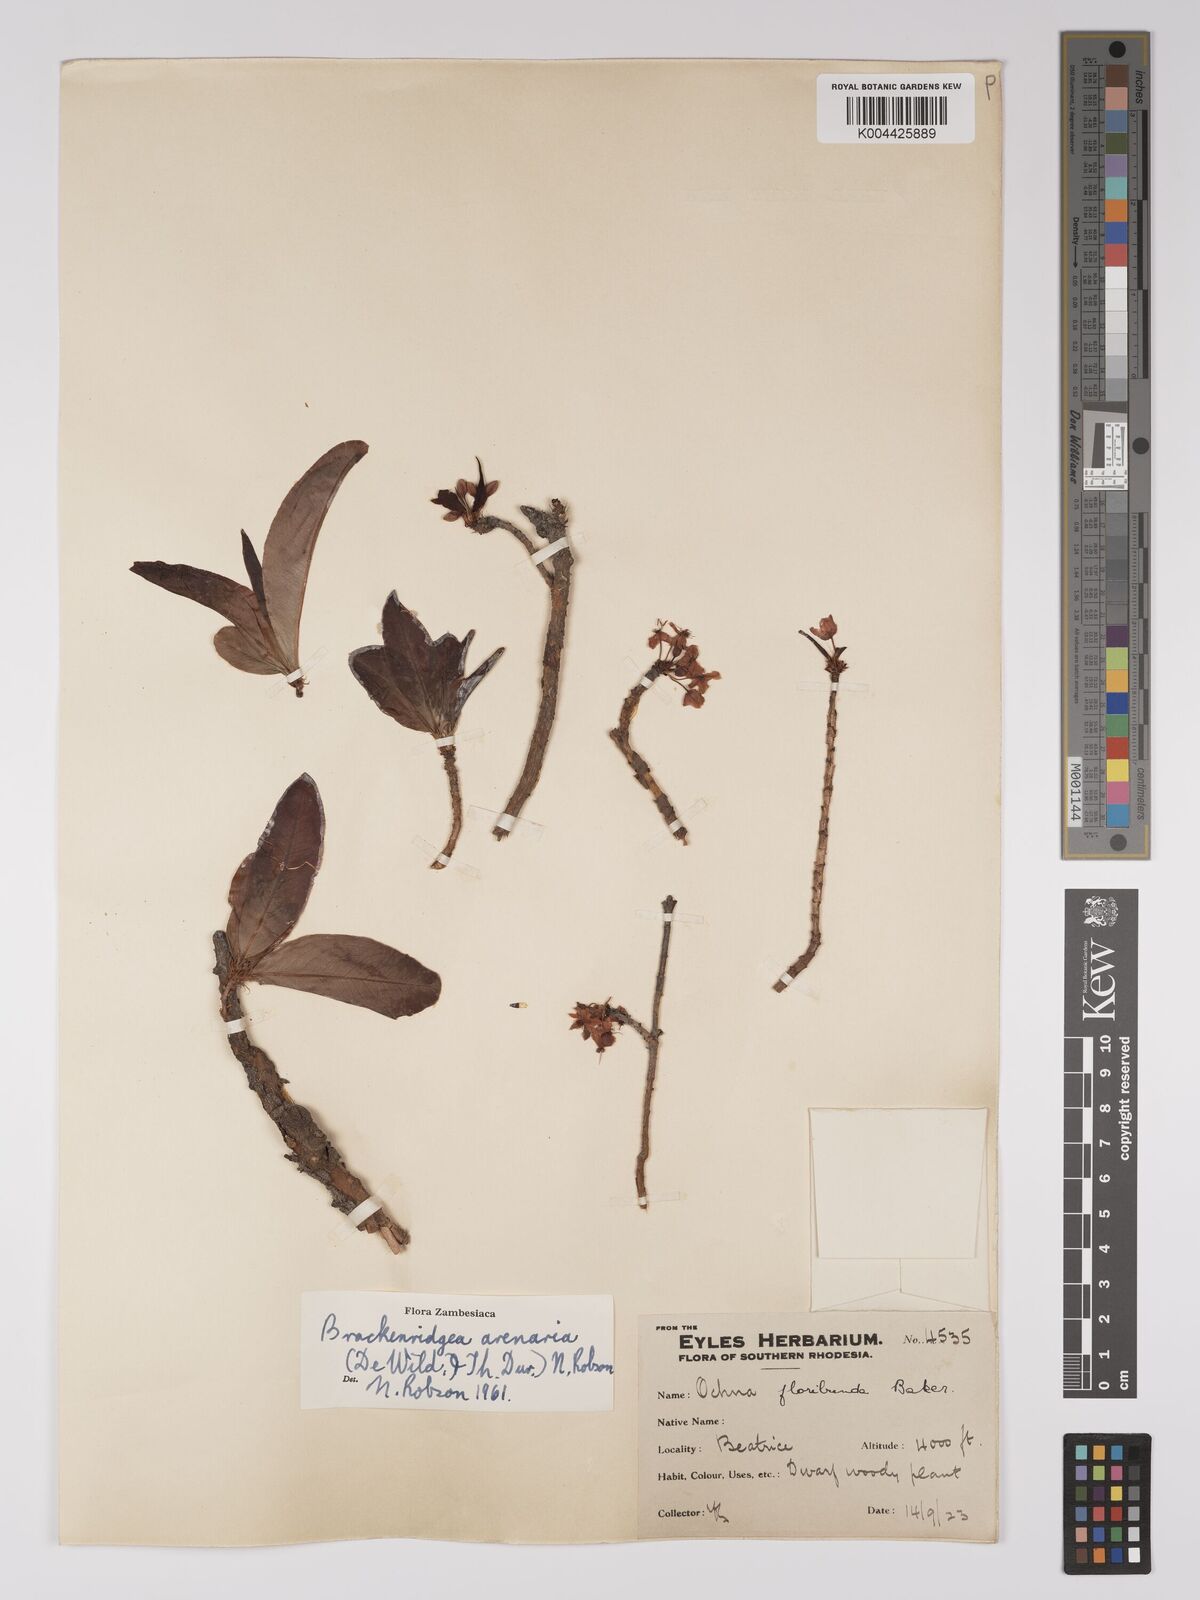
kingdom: Plantae
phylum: Tracheophyta
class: Magnoliopsida
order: Malpighiales
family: Ochnaceae
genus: Ochna
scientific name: Ochna arenaria
